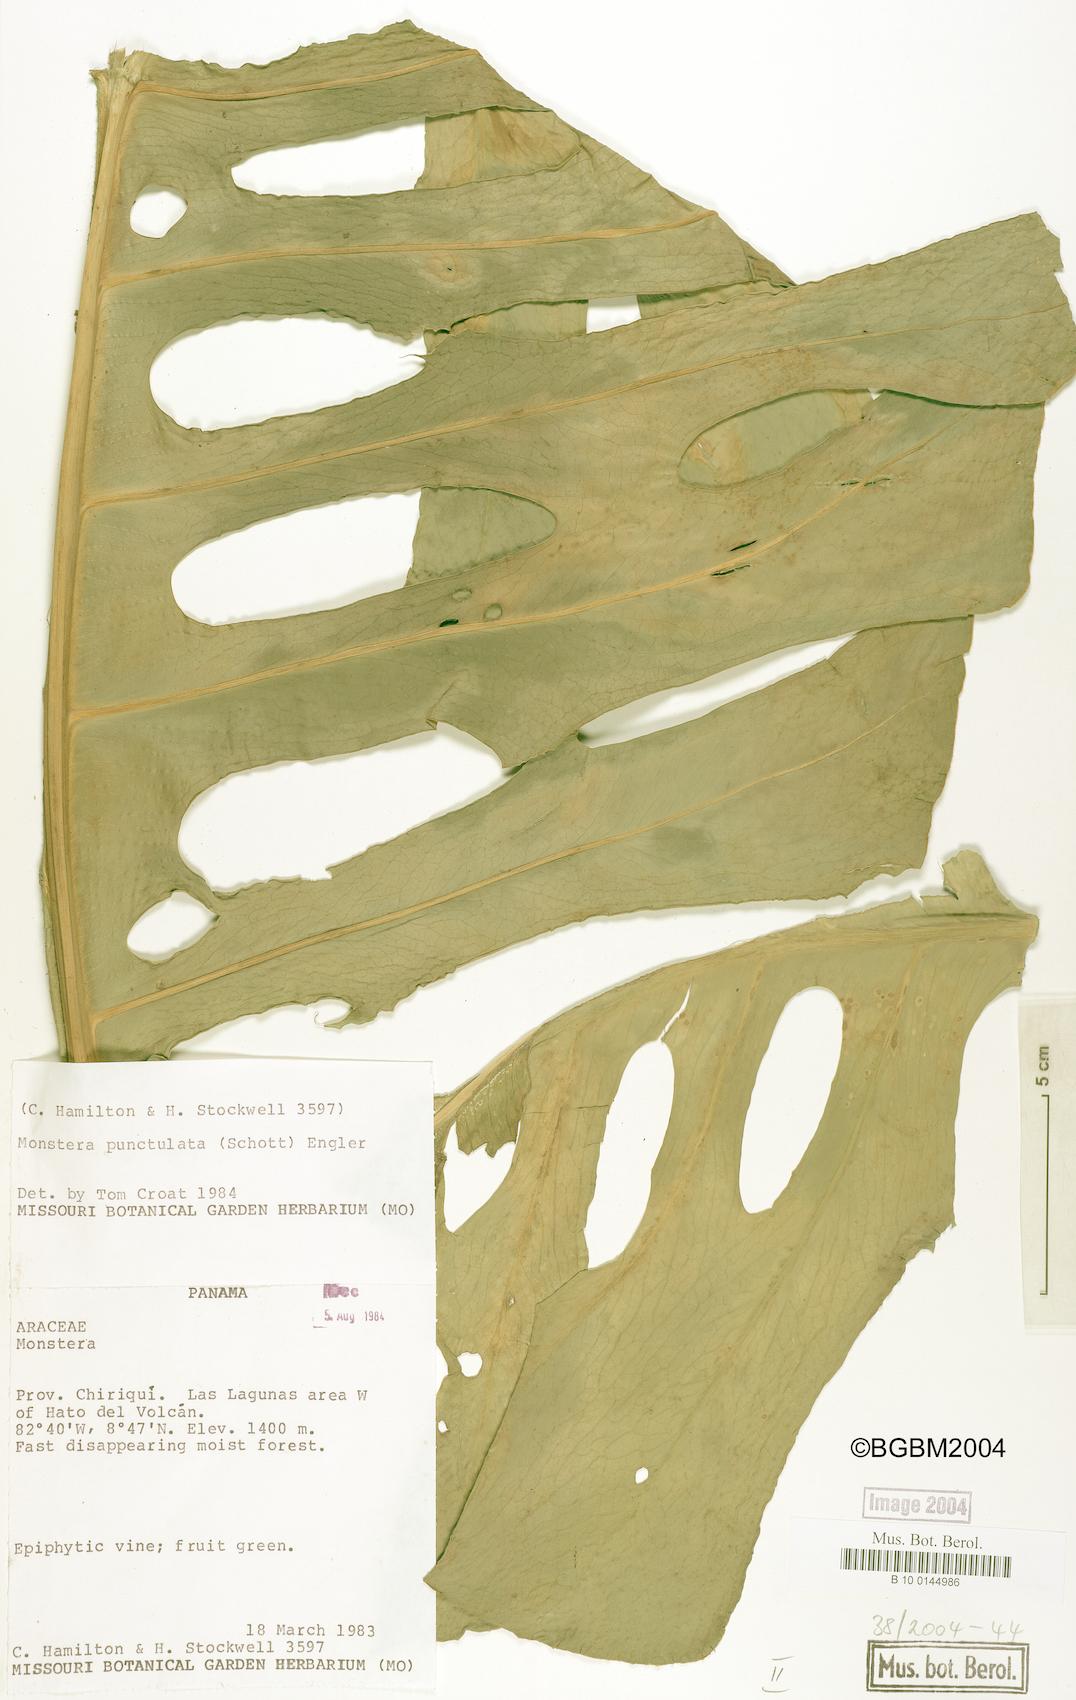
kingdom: Plantae
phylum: Tracheophyta
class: Liliopsida
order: Alismatales
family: Araceae
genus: Monstera
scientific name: Monstera punctulata
